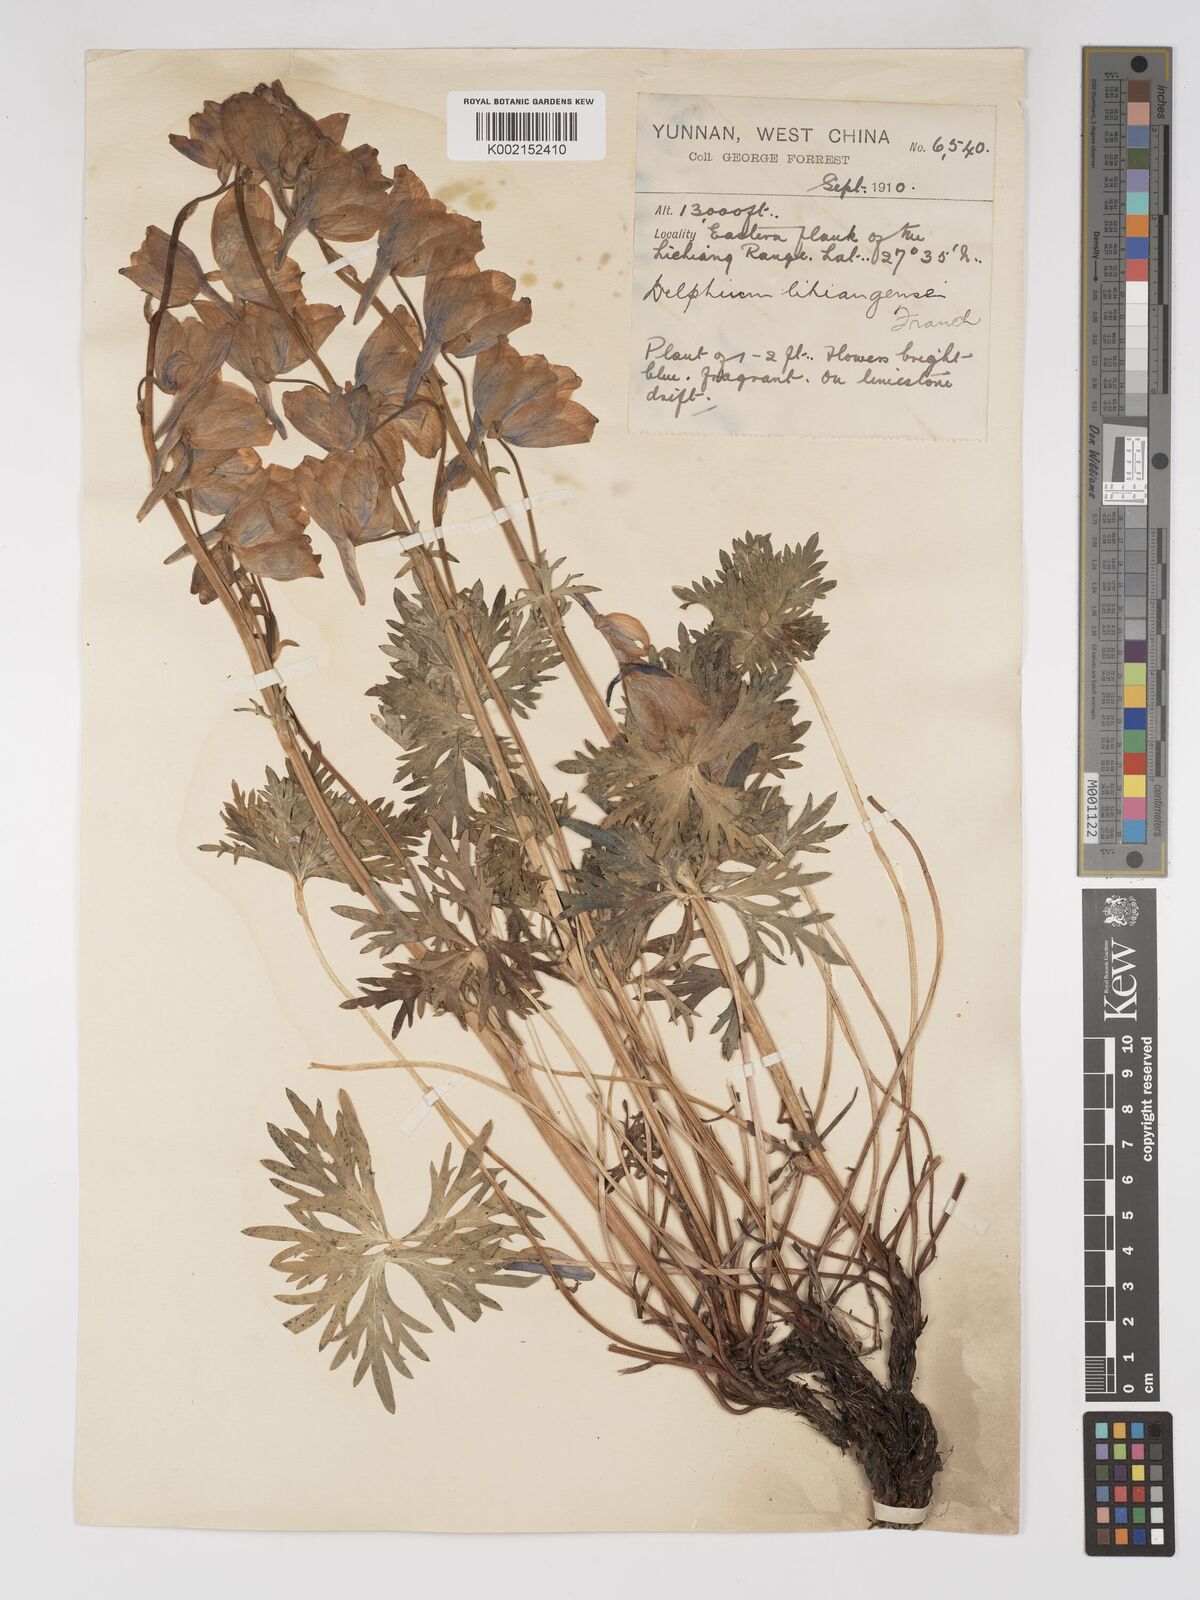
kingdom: Plantae
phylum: Tracheophyta
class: Magnoliopsida
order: Ranunculales
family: Ranunculaceae
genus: Delphinium
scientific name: Delphinium likiangense
